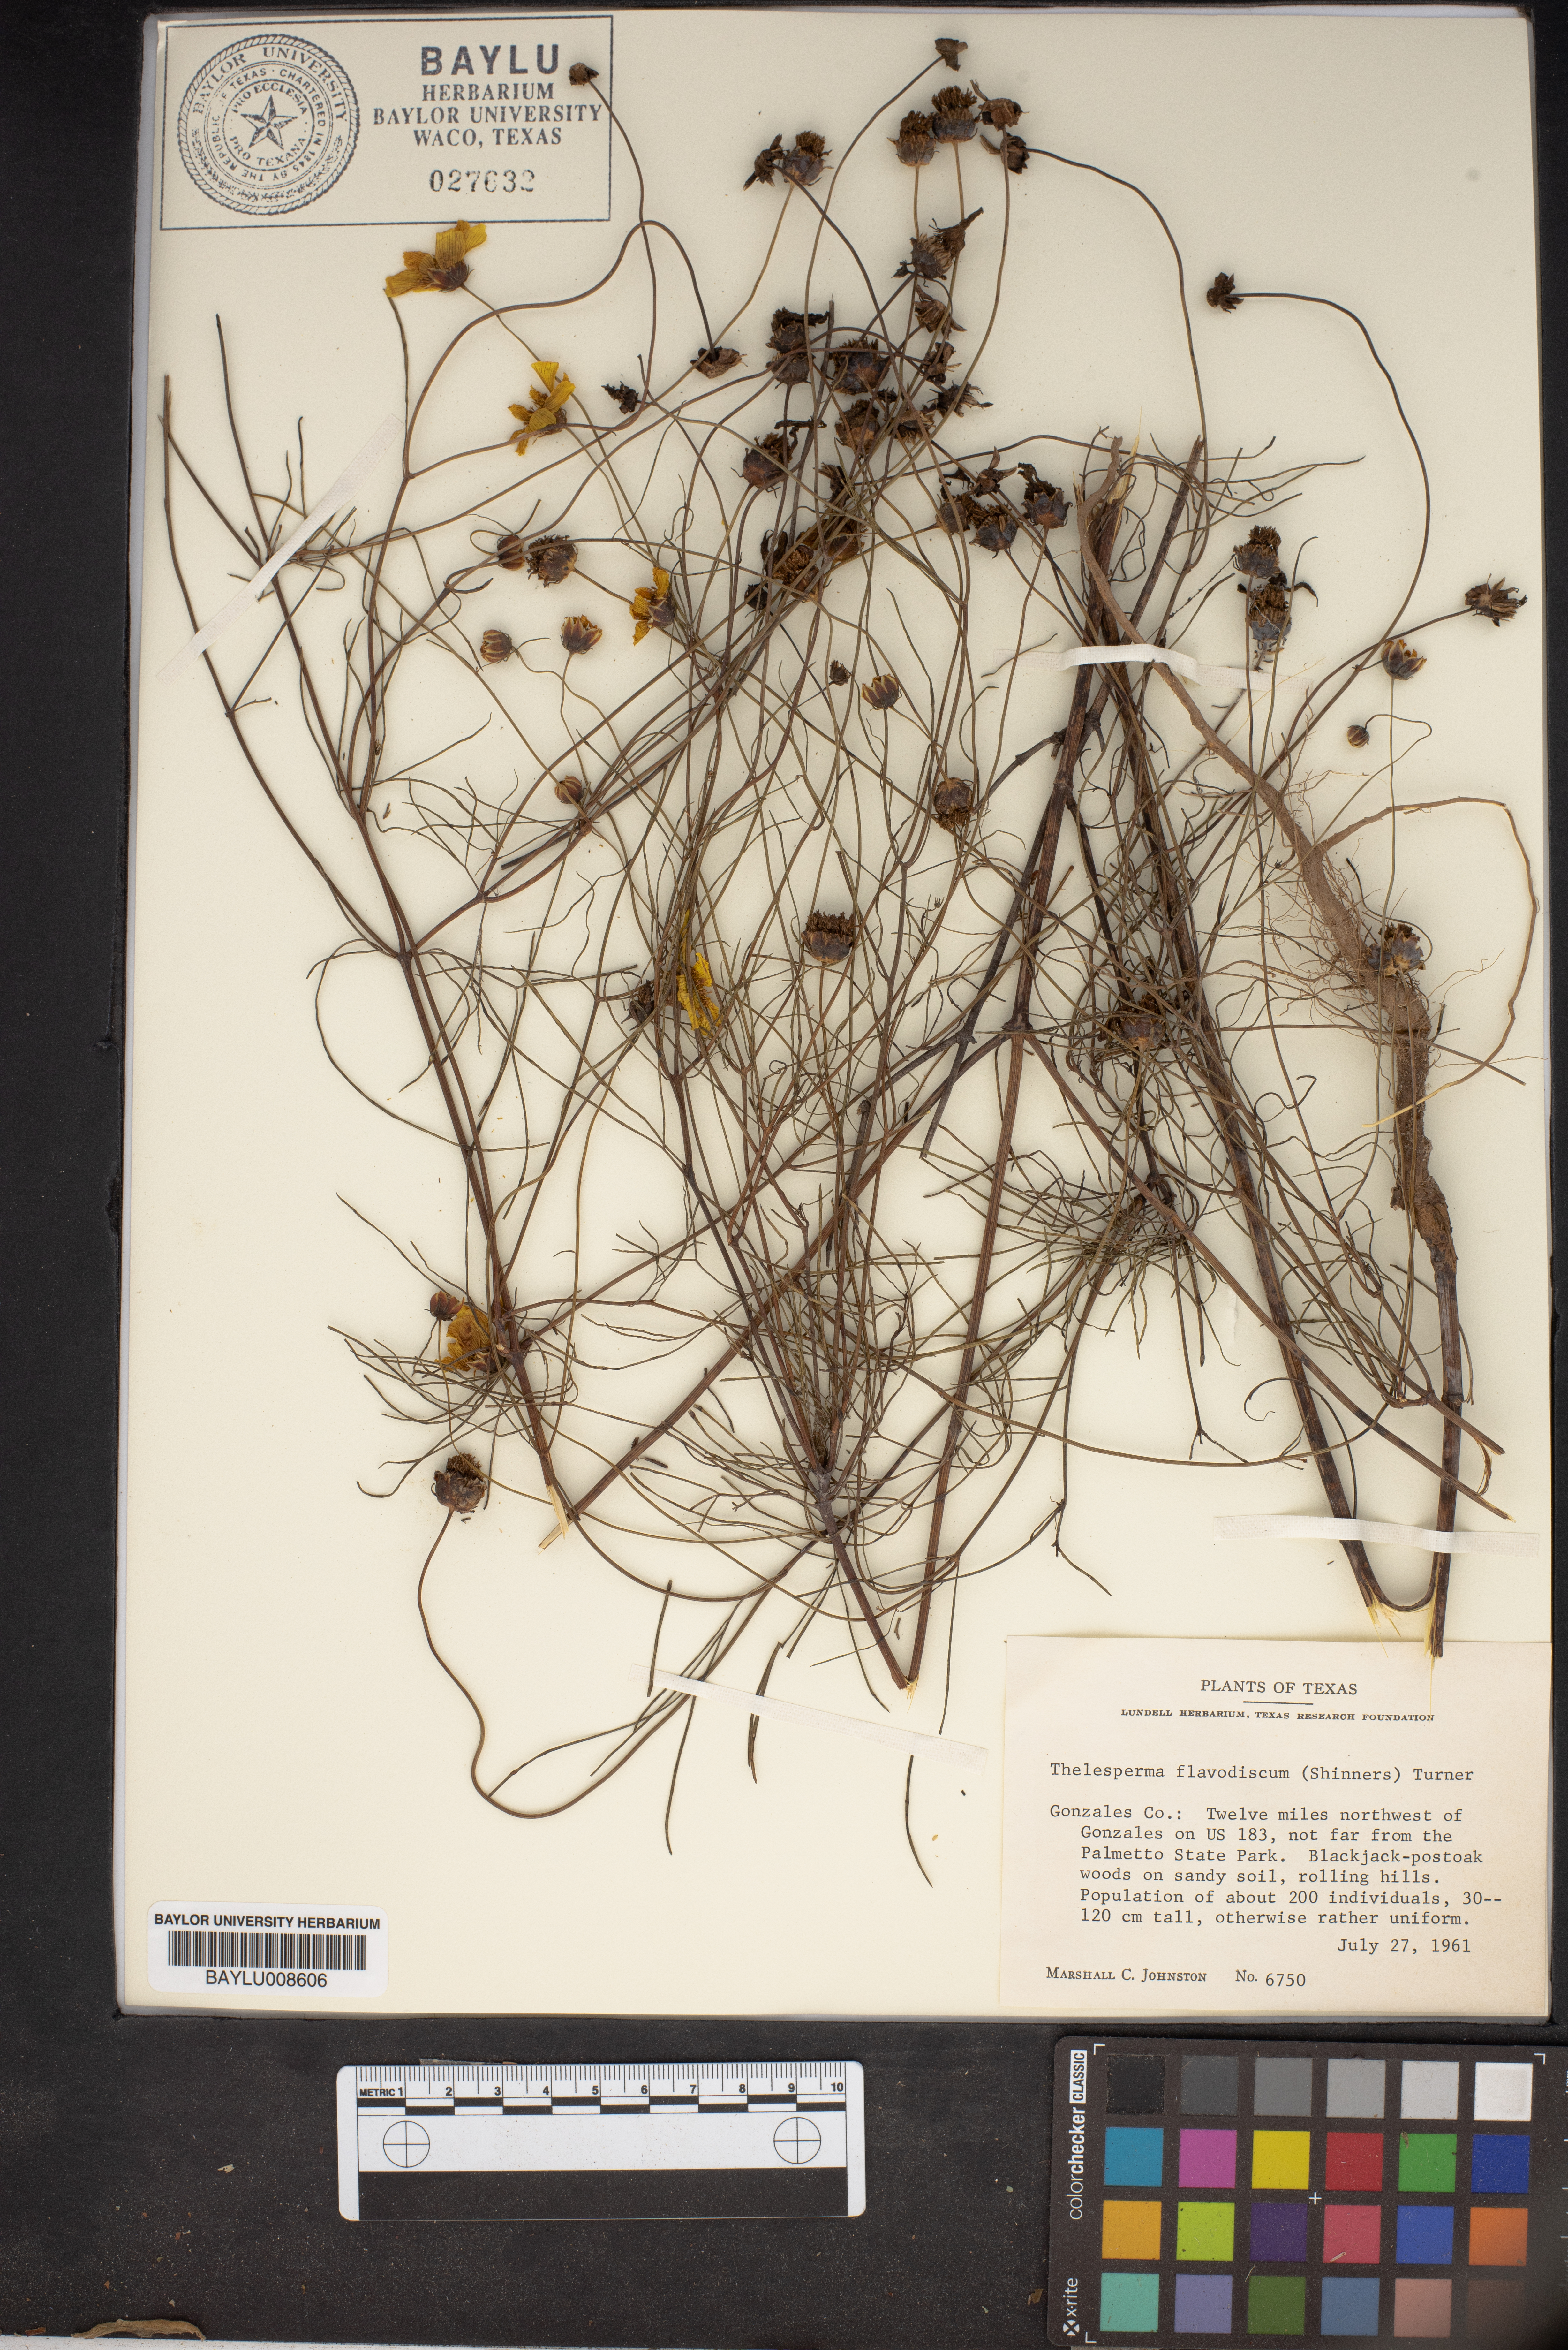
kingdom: Plantae
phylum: Tracheophyta
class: Magnoliopsida
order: Asterales
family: Asteraceae
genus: Thelesperma
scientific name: Thelesperma flavodiscum
